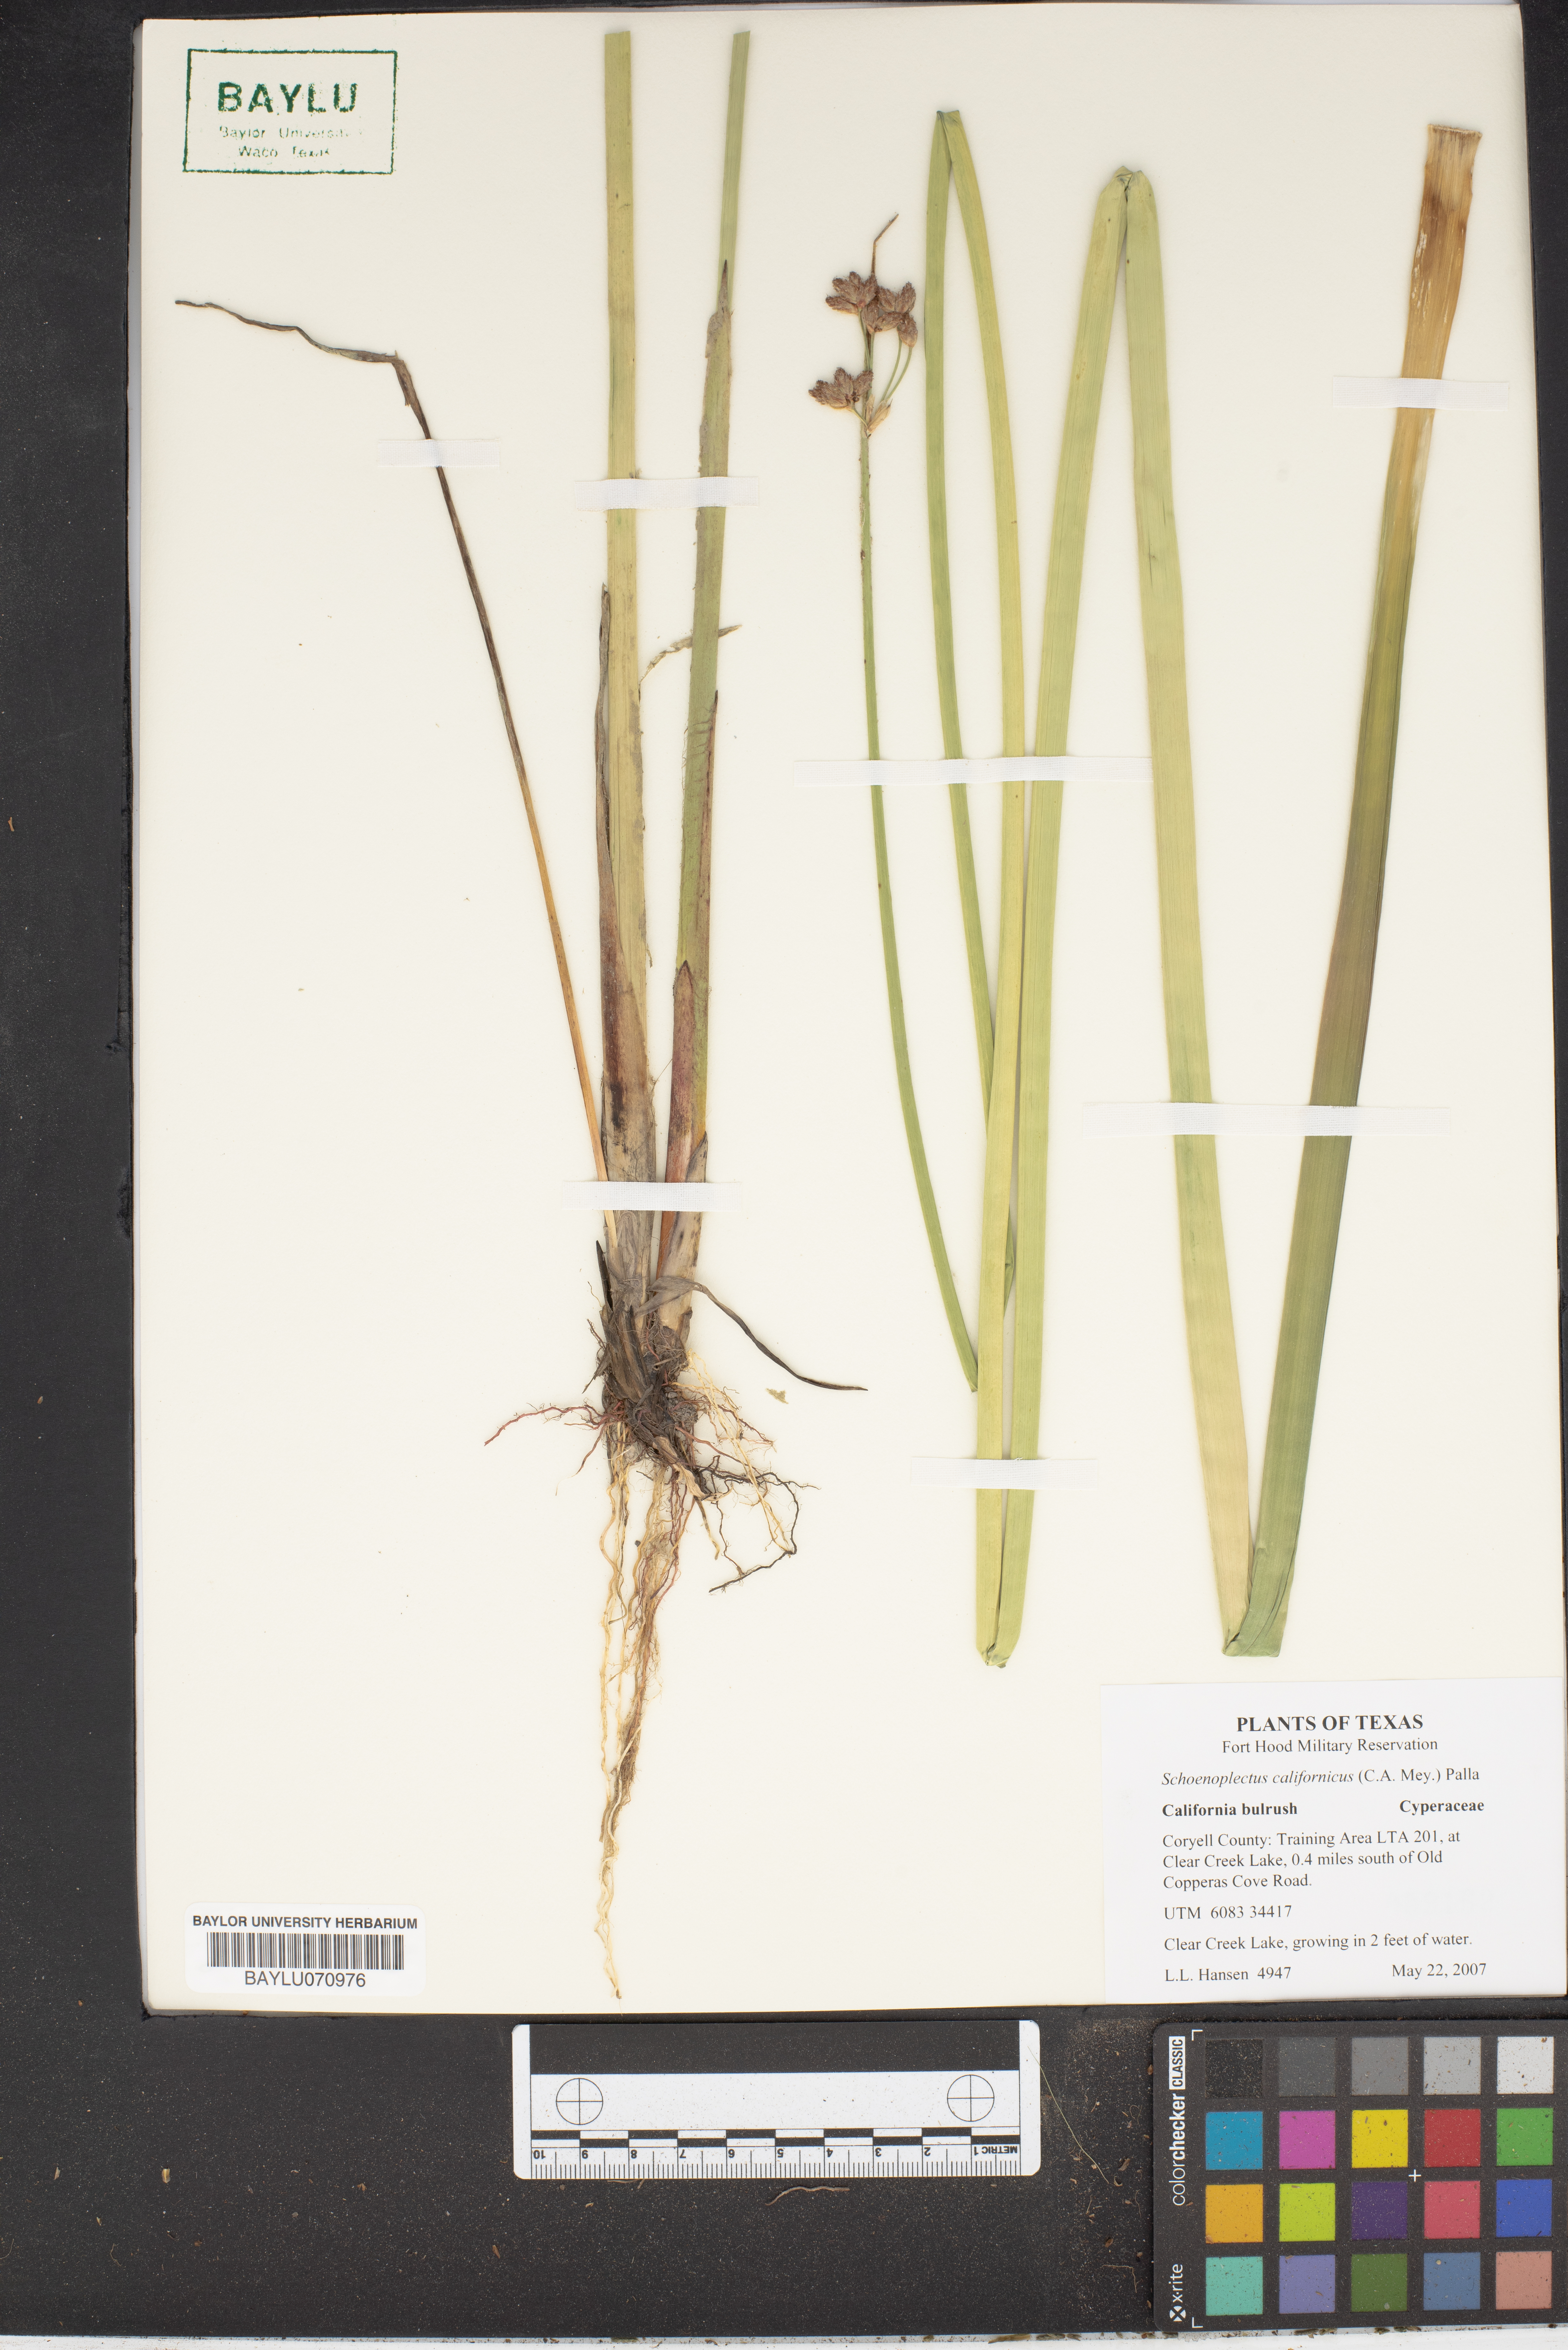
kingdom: Plantae
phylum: Tracheophyta
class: Liliopsida
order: Poales
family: Cyperaceae
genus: Schoenoplectus
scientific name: Schoenoplectus californicus
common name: California bulrush
